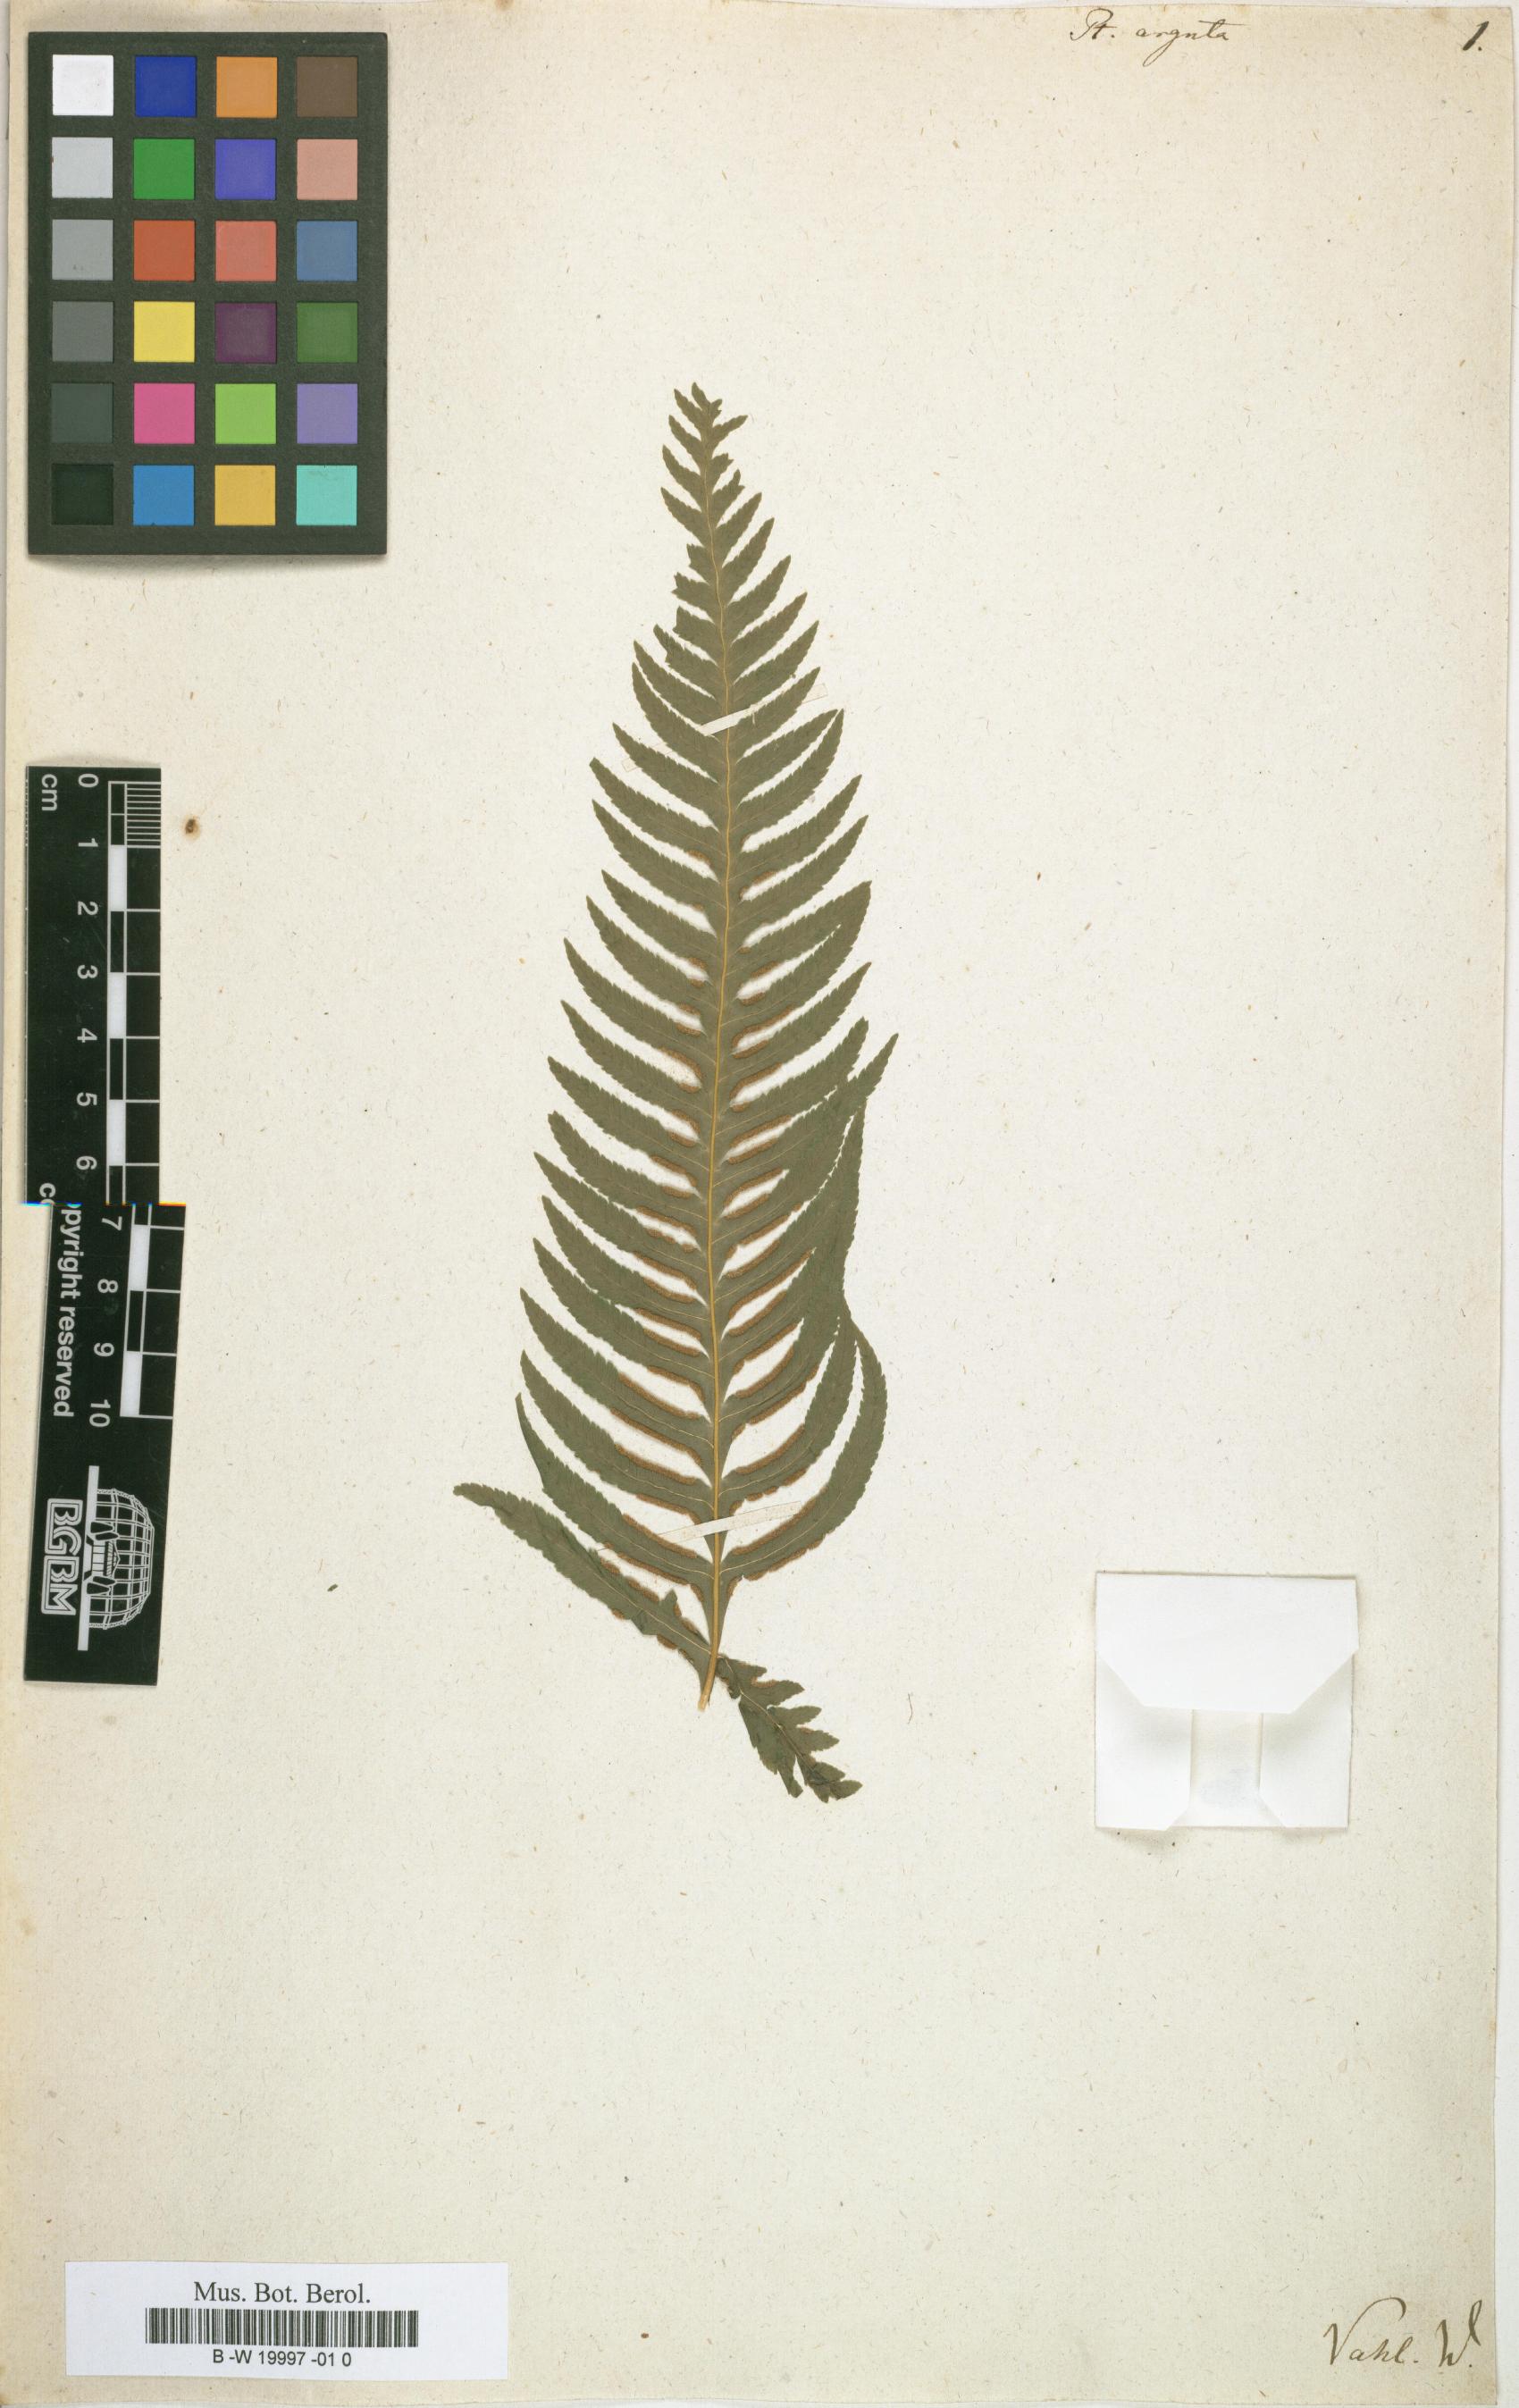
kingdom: Plantae
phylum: Tracheophyta
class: Polypodiopsida
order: Polypodiales
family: Pteridaceae
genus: Pteris
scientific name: Pteris
